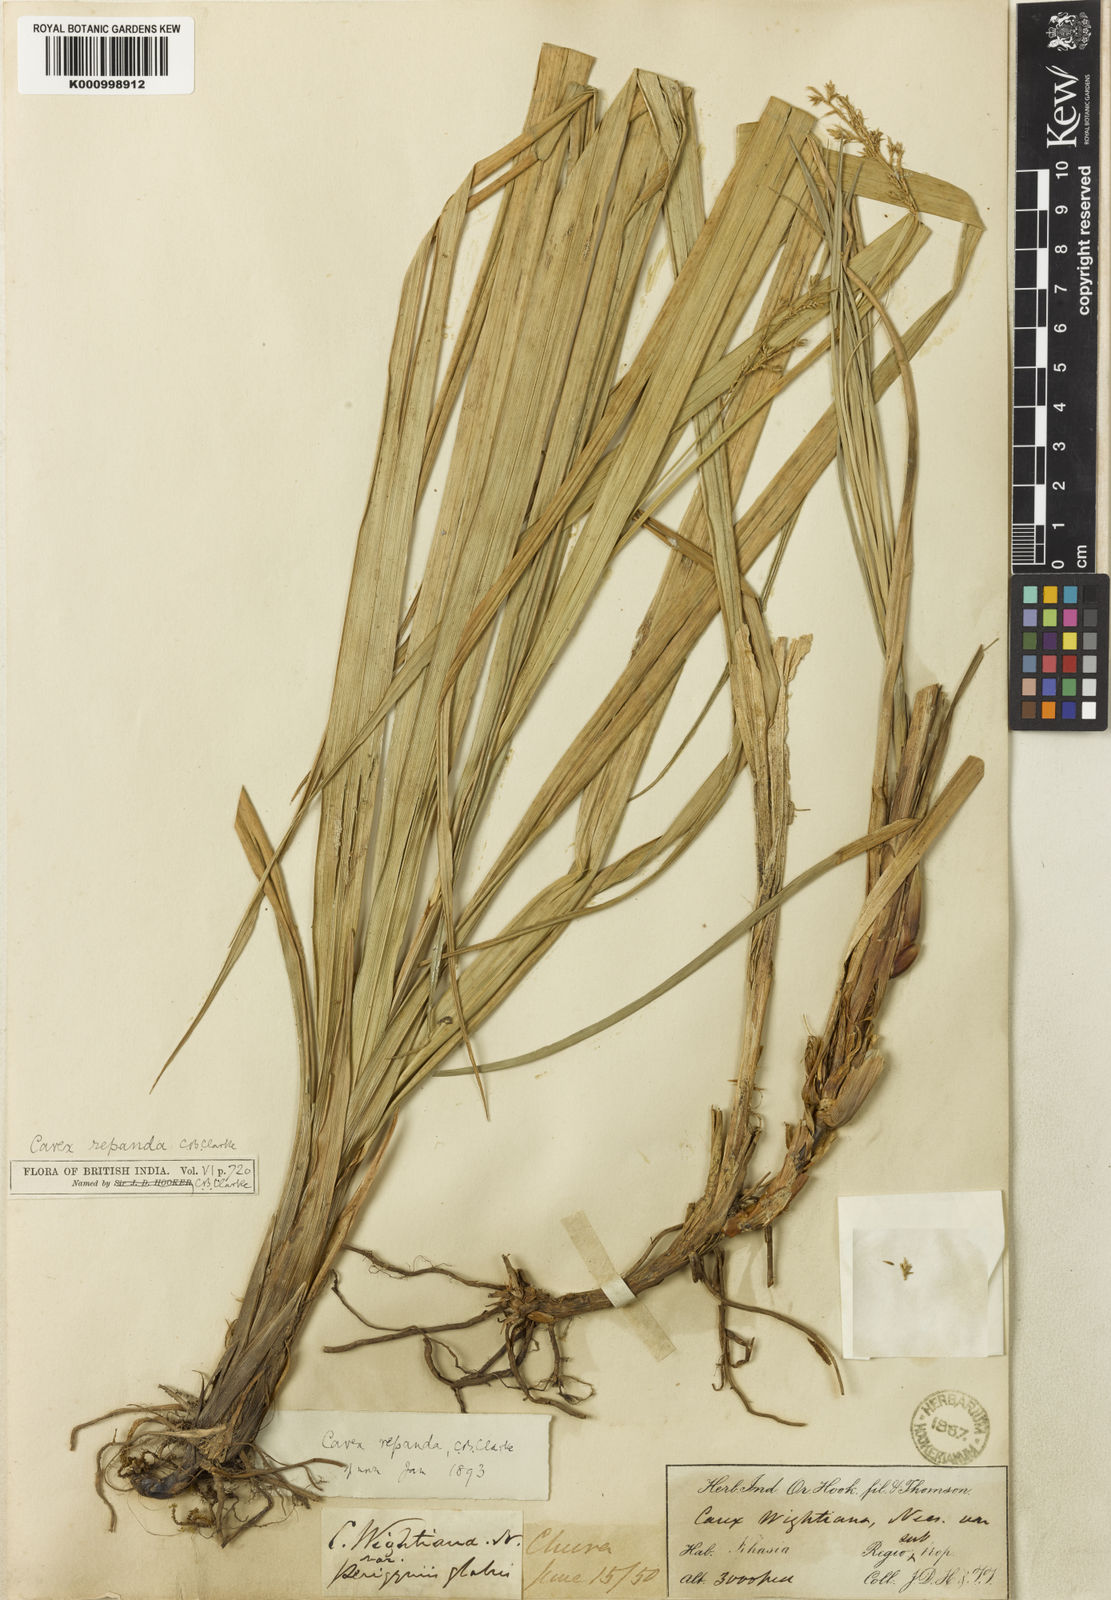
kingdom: Plantae
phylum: Tracheophyta
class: Liliopsida
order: Poales
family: Cyperaceae
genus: Carex
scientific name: Carex wightiana
